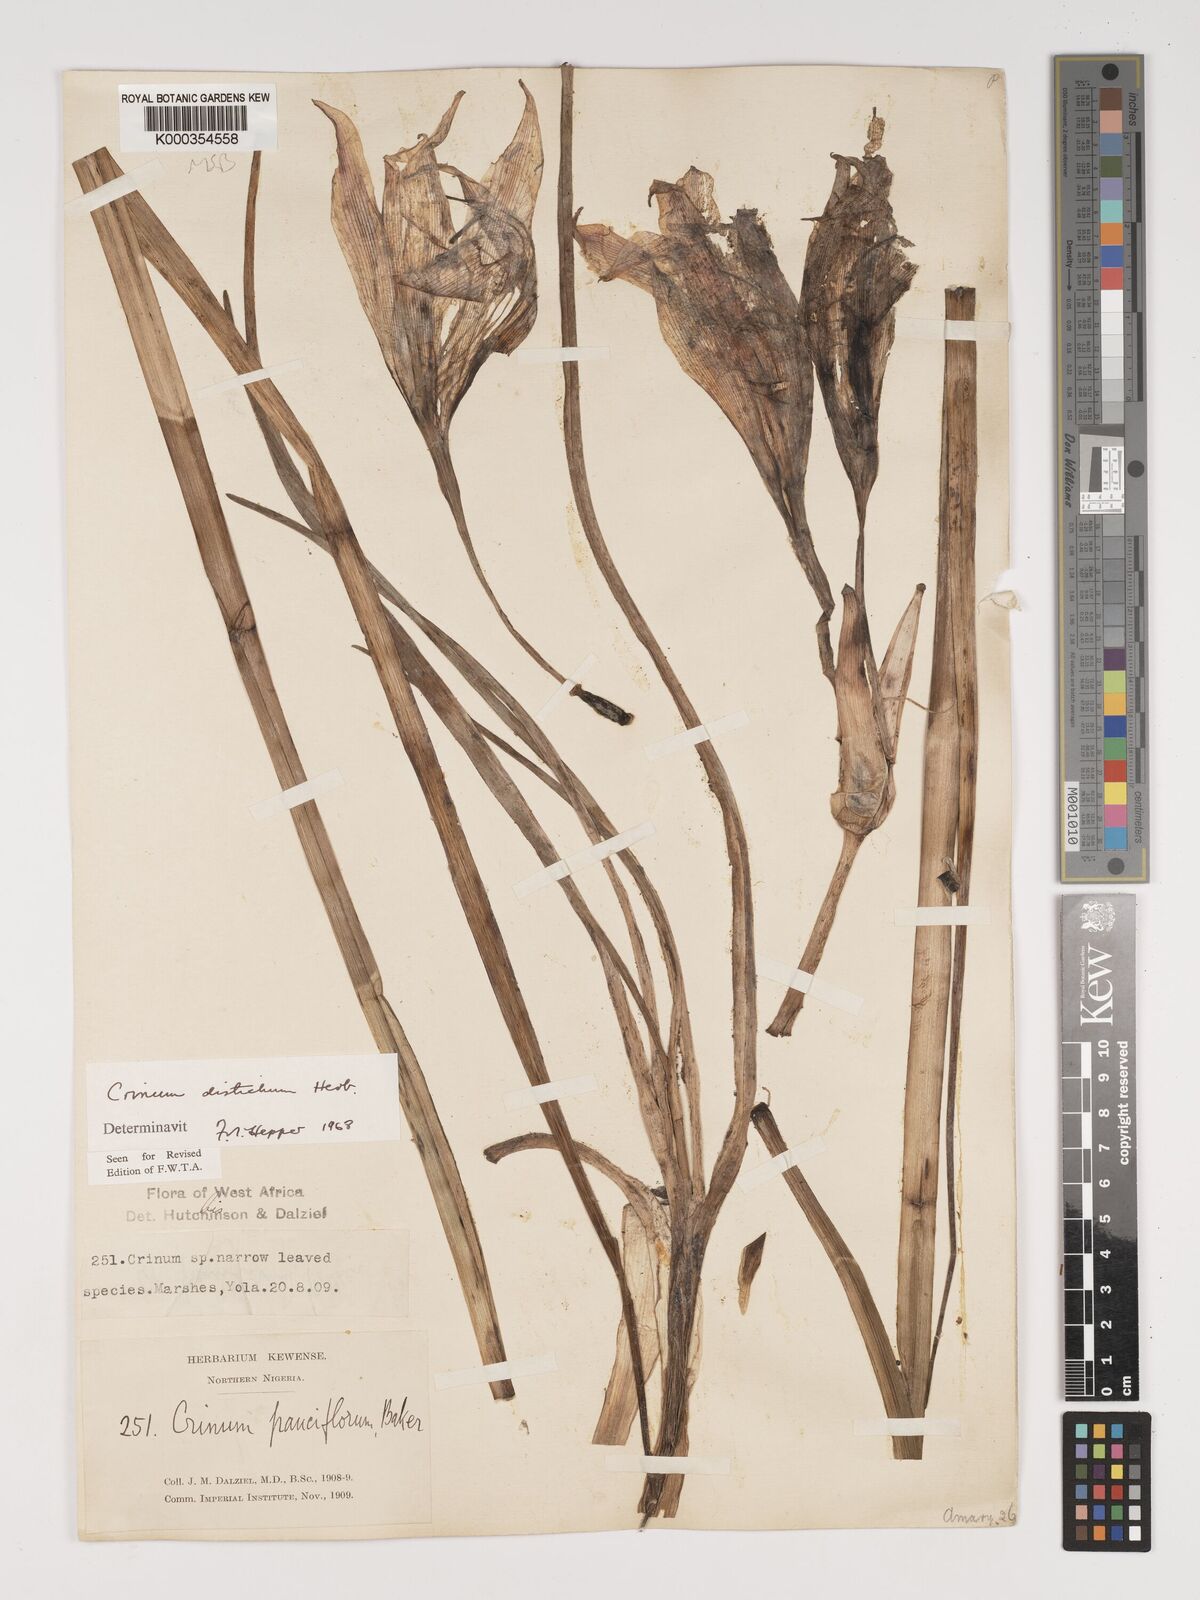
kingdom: Plantae
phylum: Tracheophyta
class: Liliopsida
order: Asparagales
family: Amaryllidaceae
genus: Crinum
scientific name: Crinum zeylanicum
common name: Ceylon swamplily
